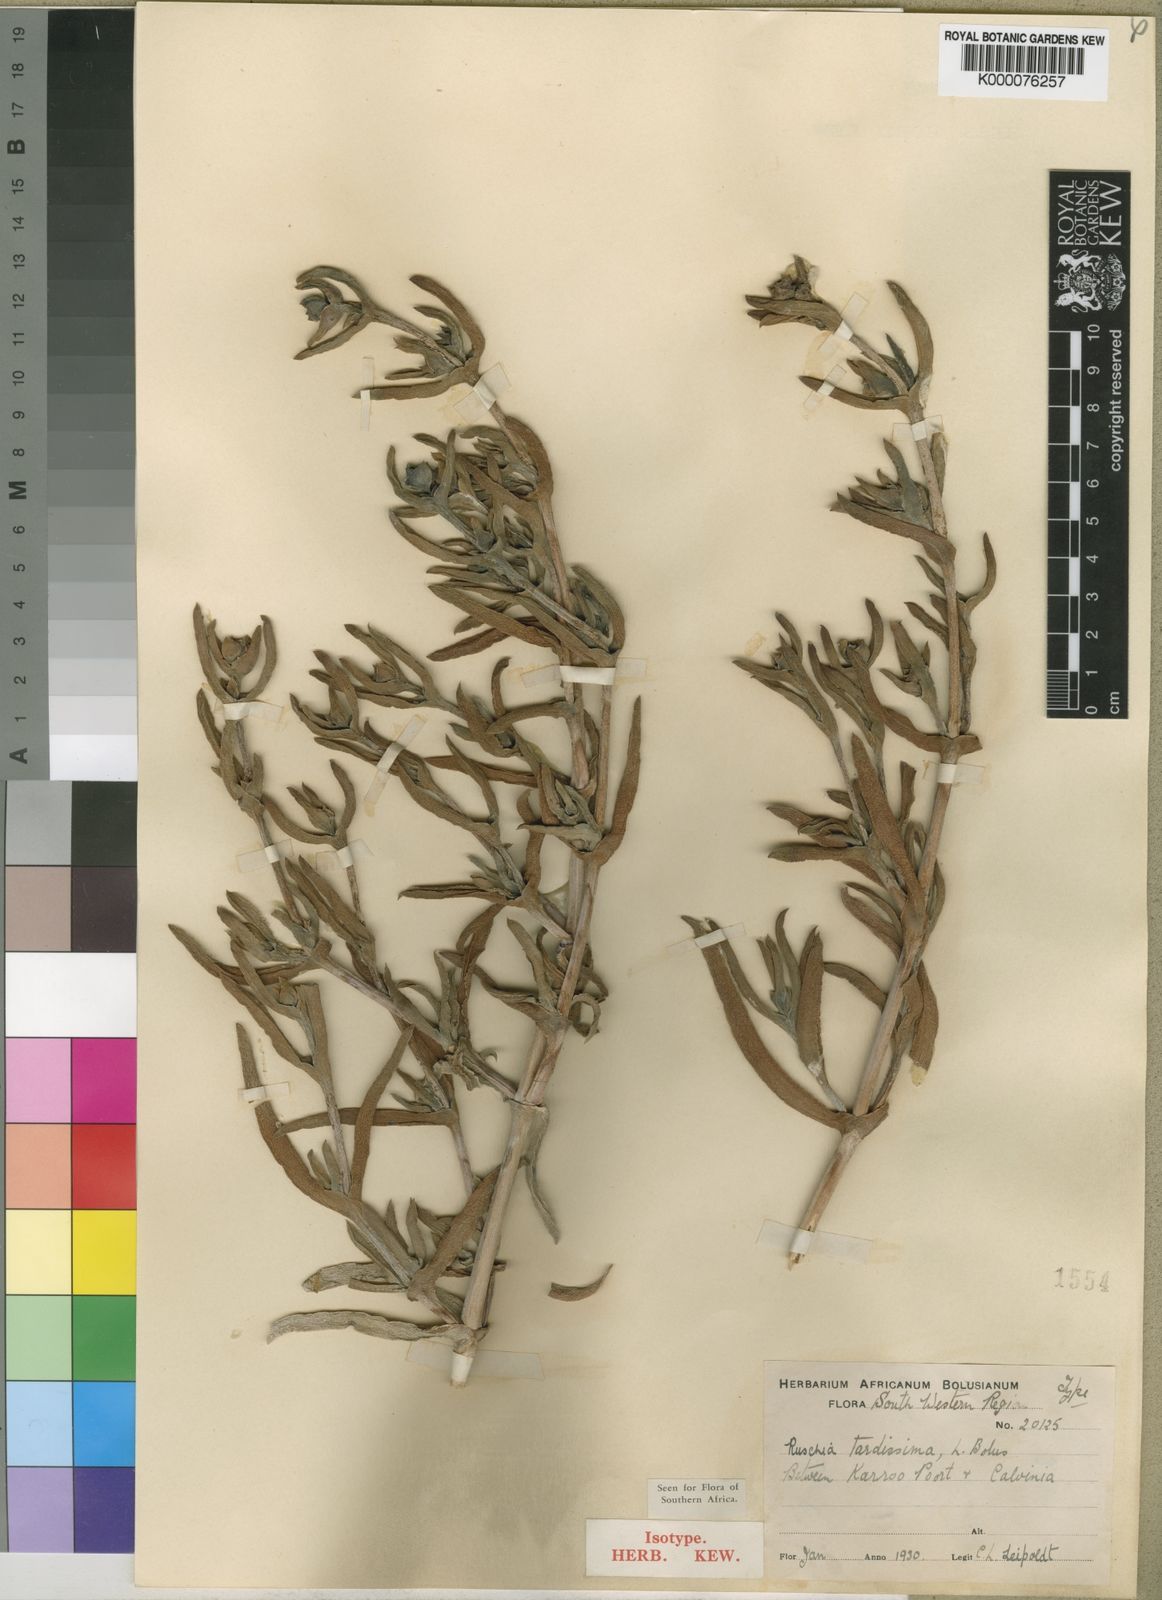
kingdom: Plantae
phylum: Tracheophyta
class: Magnoliopsida
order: Caryophyllales
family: Aizoaceae
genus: Ruschia
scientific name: Ruschia tardissima
